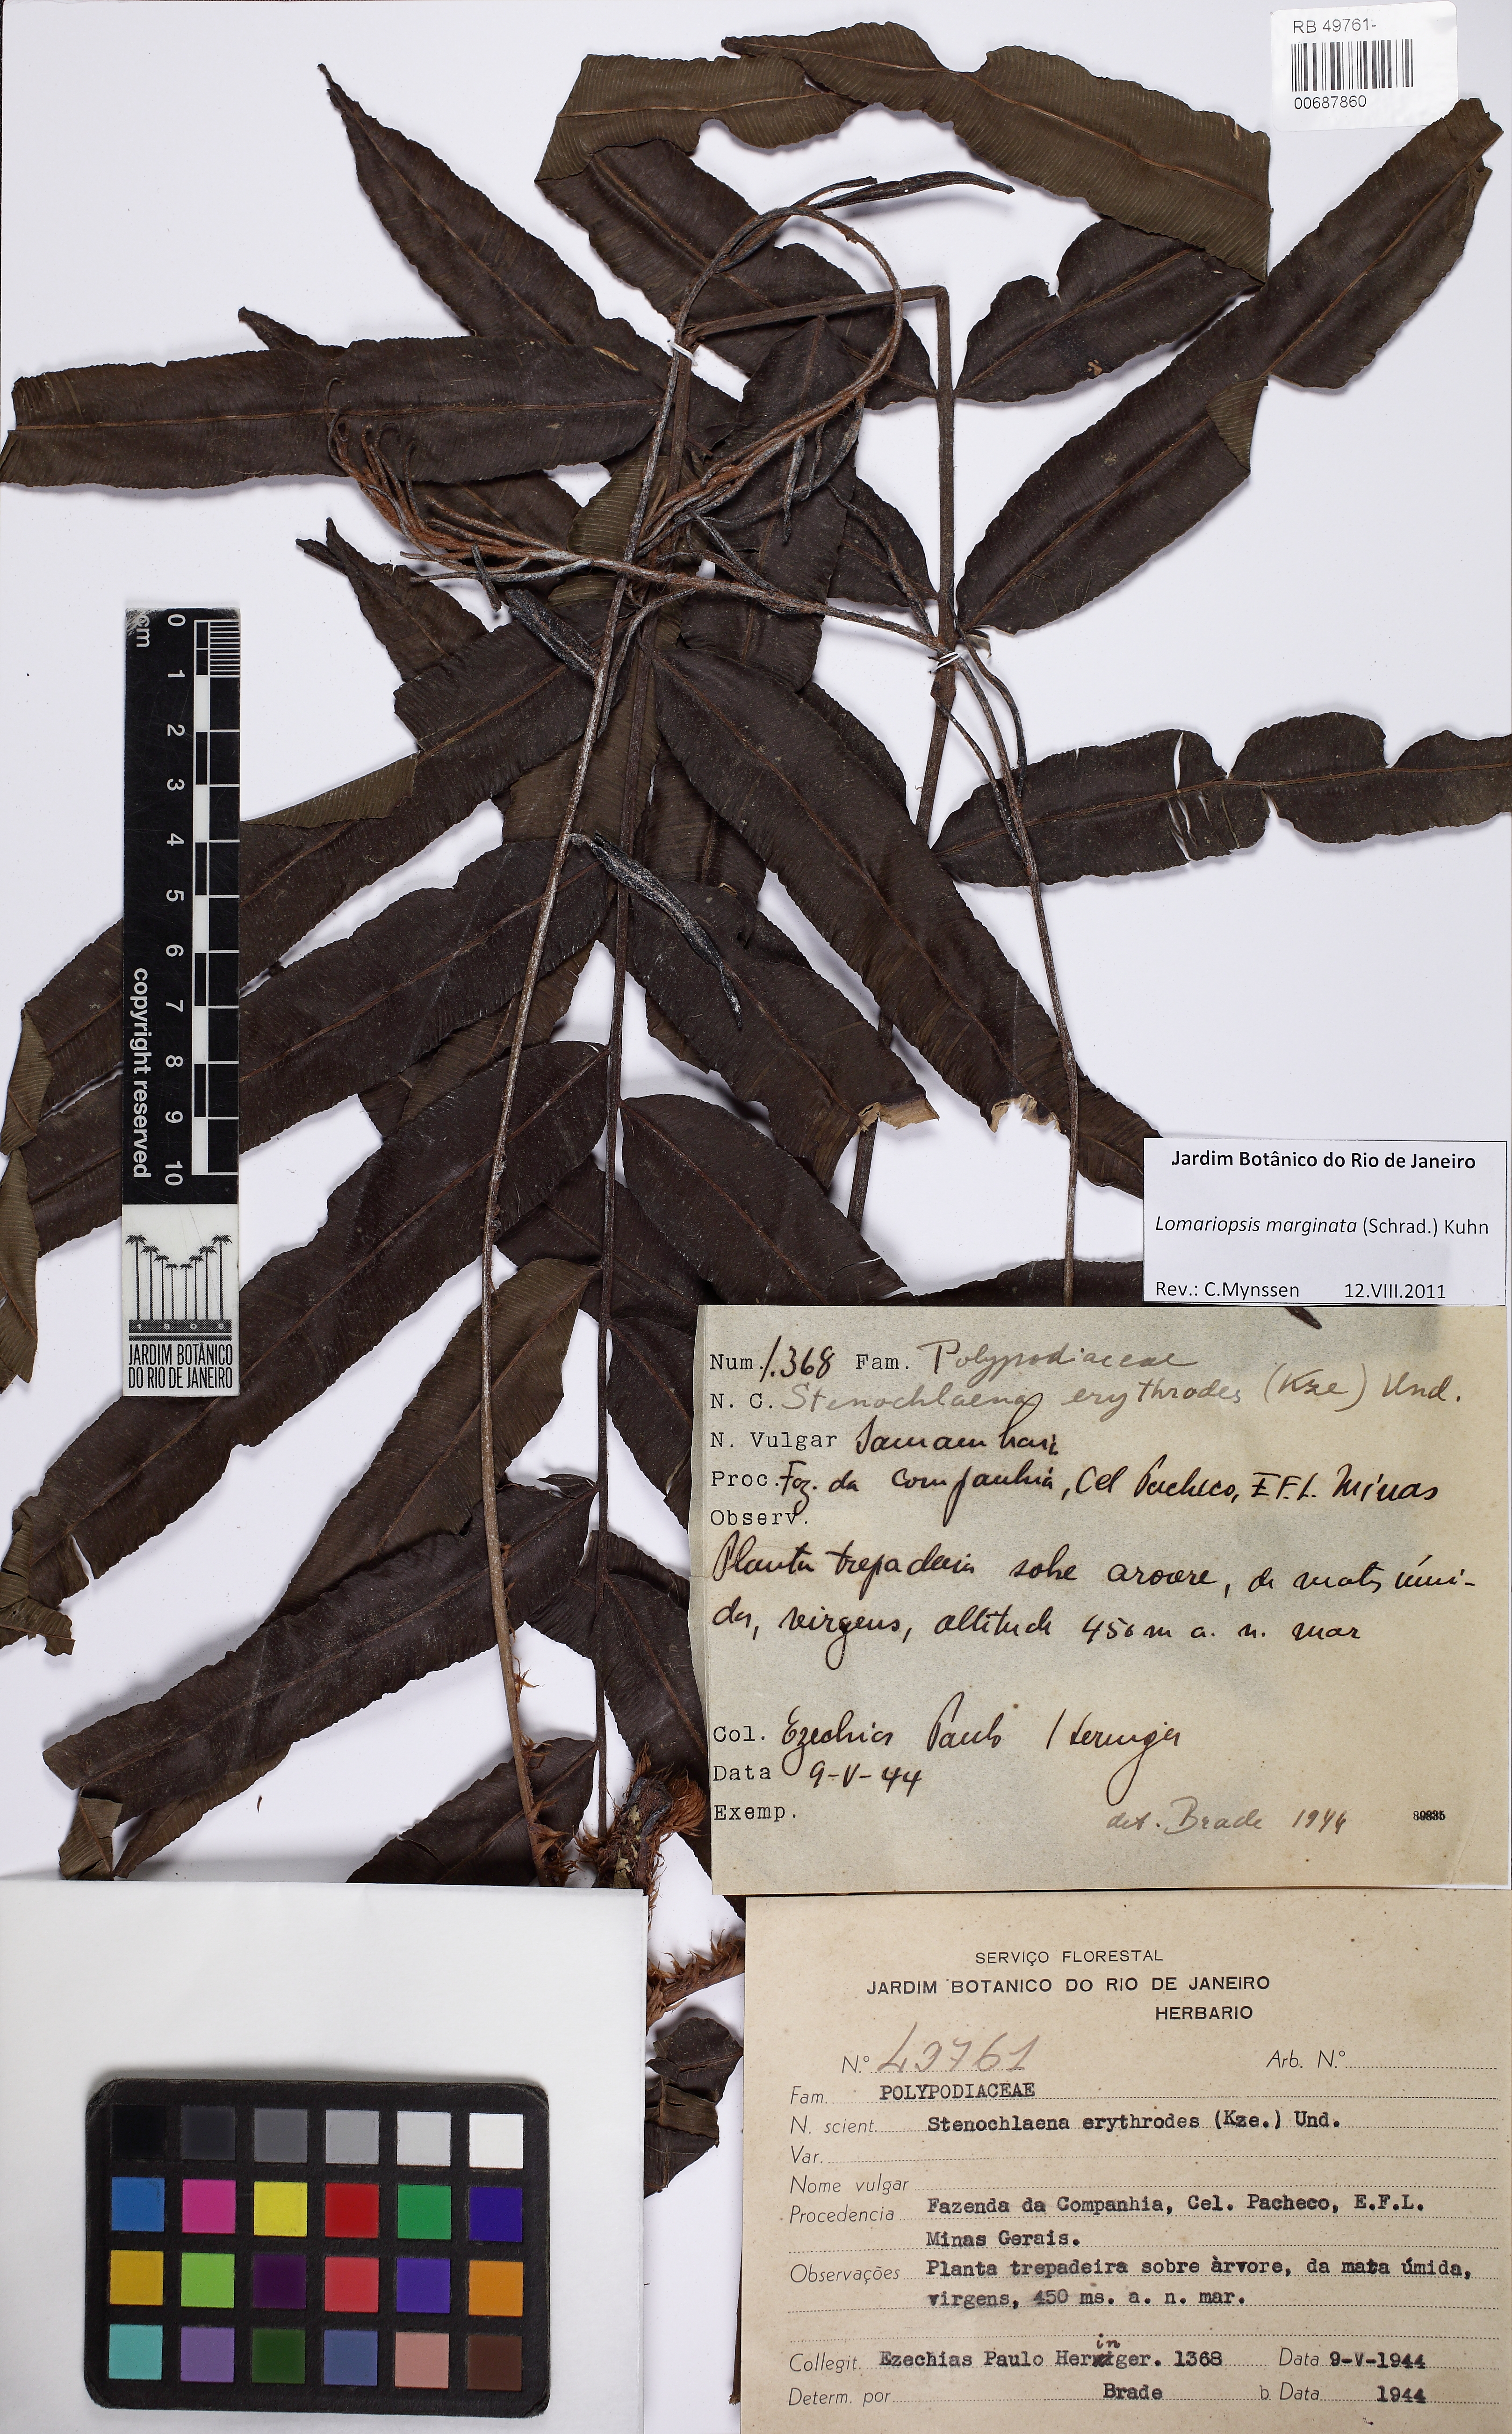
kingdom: Plantae
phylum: Tracheophyta
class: Polypodiopsida
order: Polypodiales
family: Lomariopsidaceae
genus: Lomariopsis
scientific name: Lomariopsis marginata
